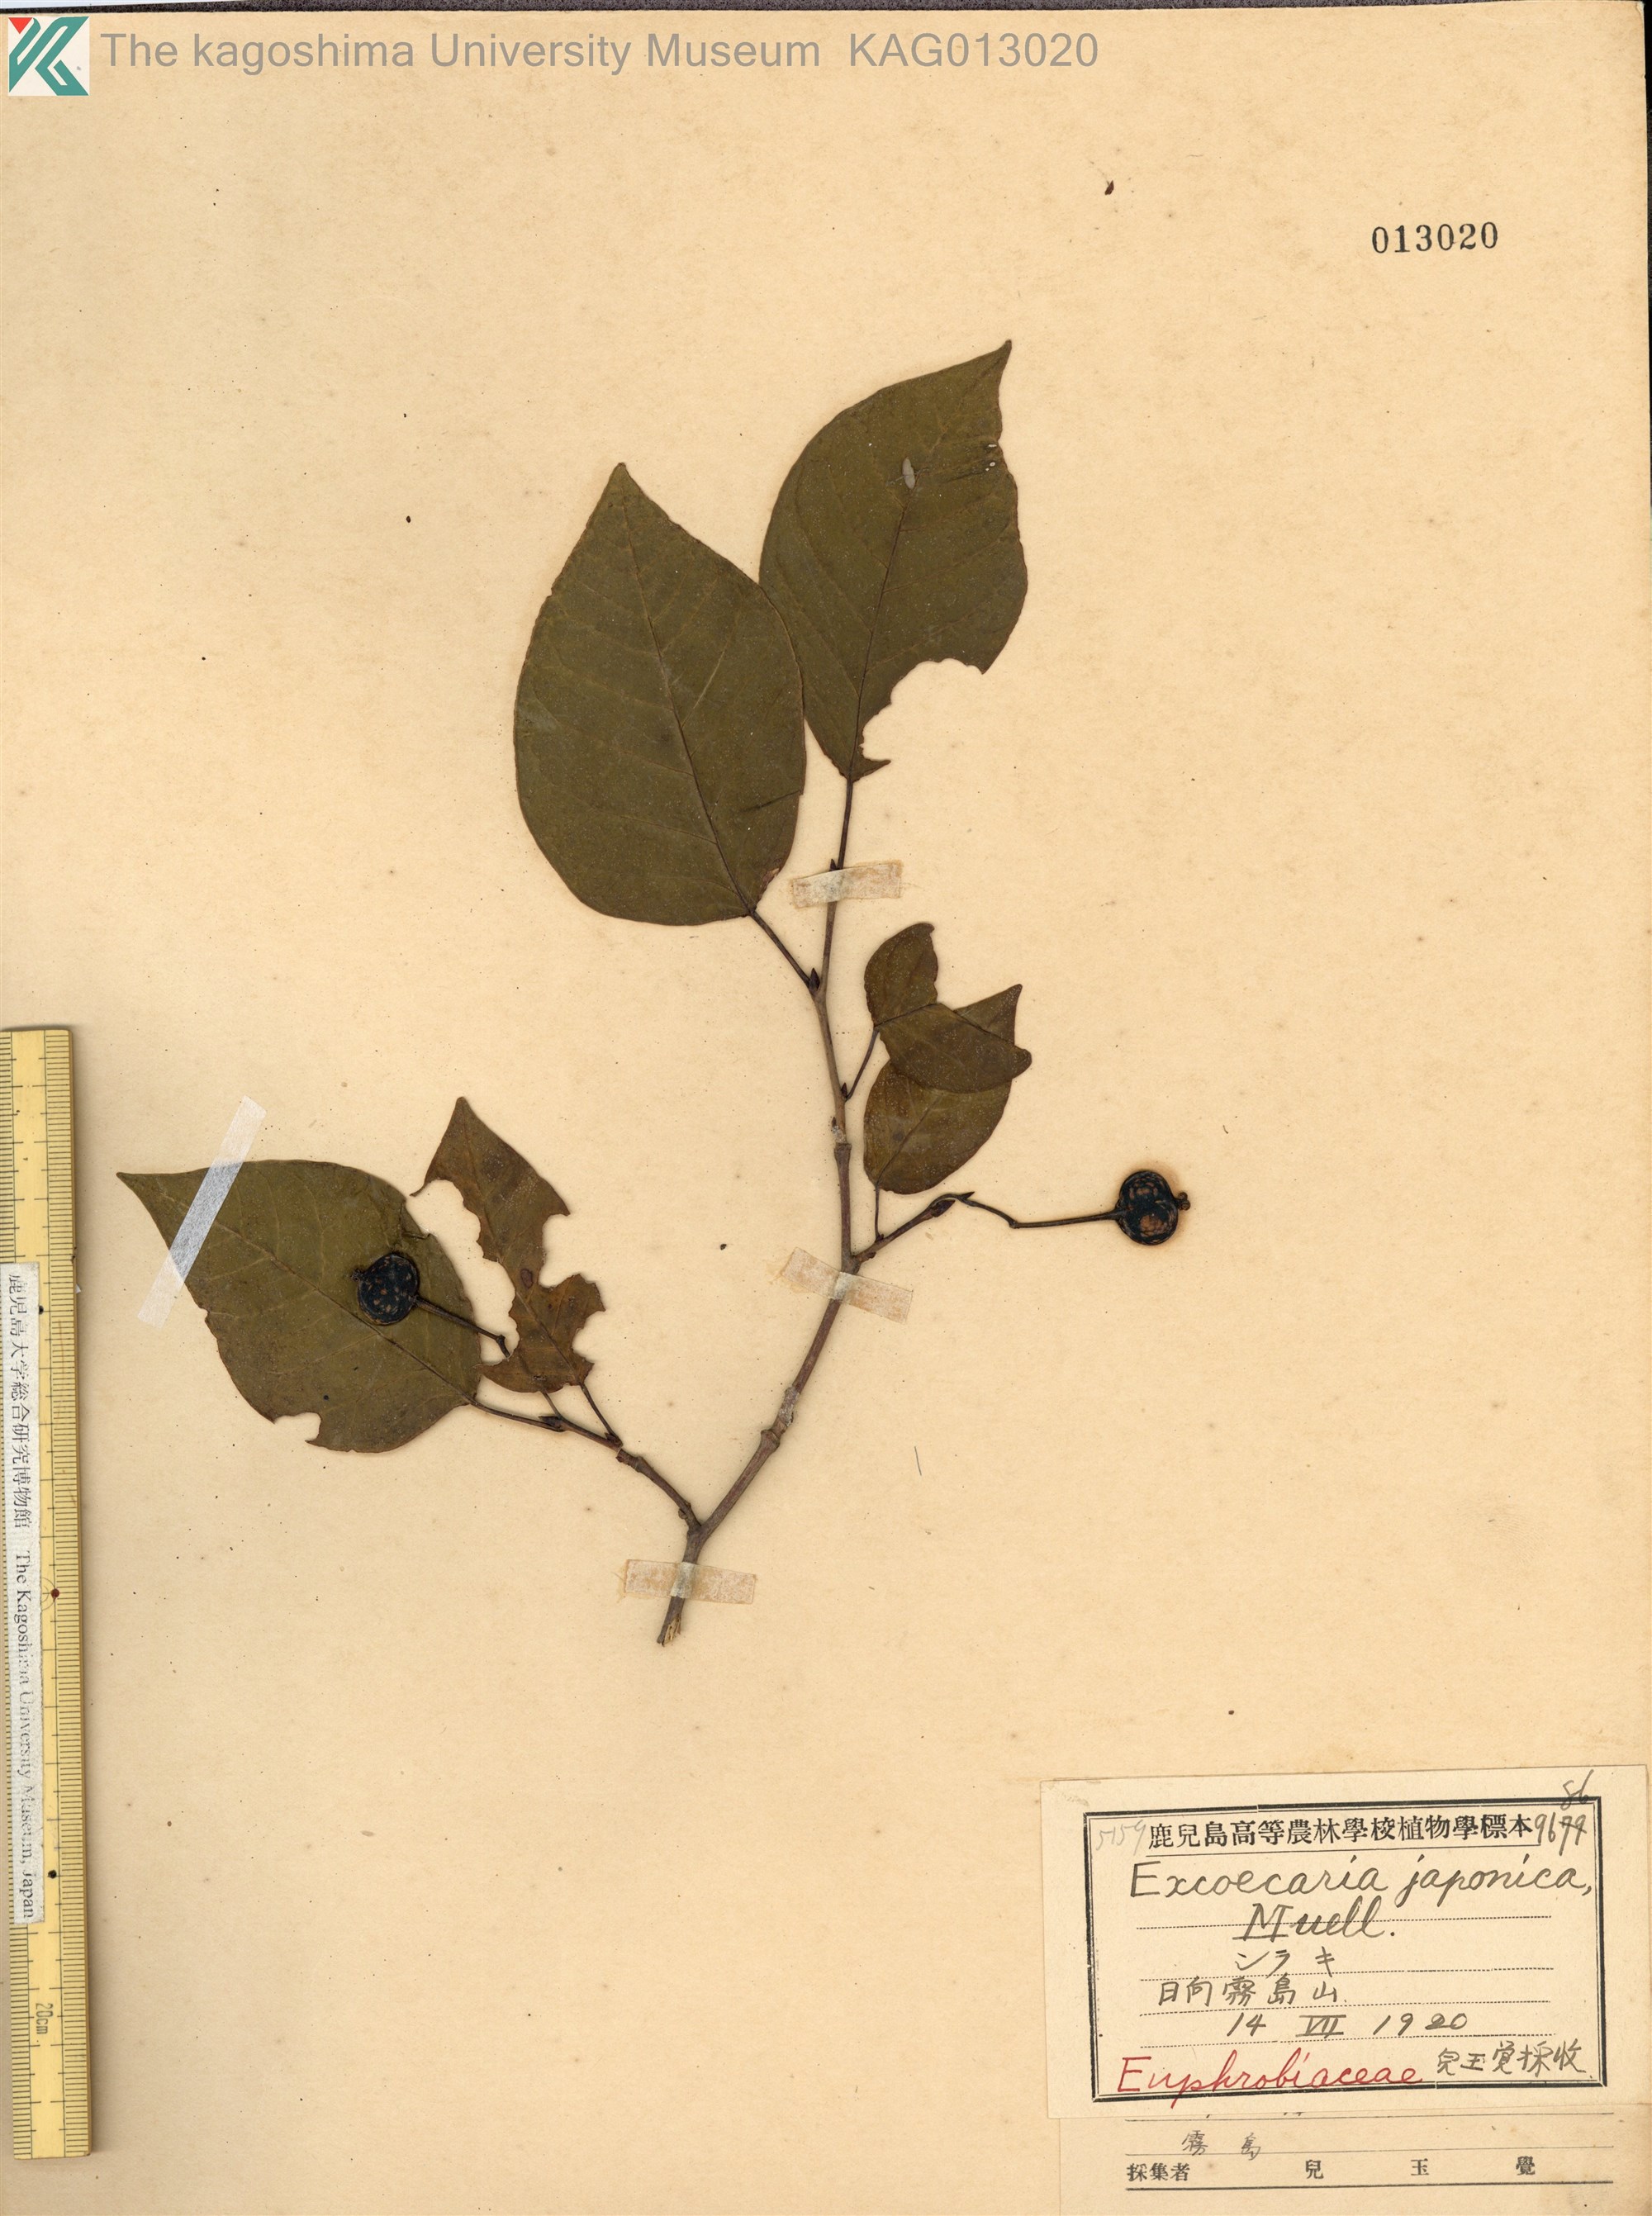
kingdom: Plantae
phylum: Tracheophyta
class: Magnoliopsida
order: Malpighiales
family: Euphorbiaceae
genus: Neoshirakia
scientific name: Neoshirakia japonica
